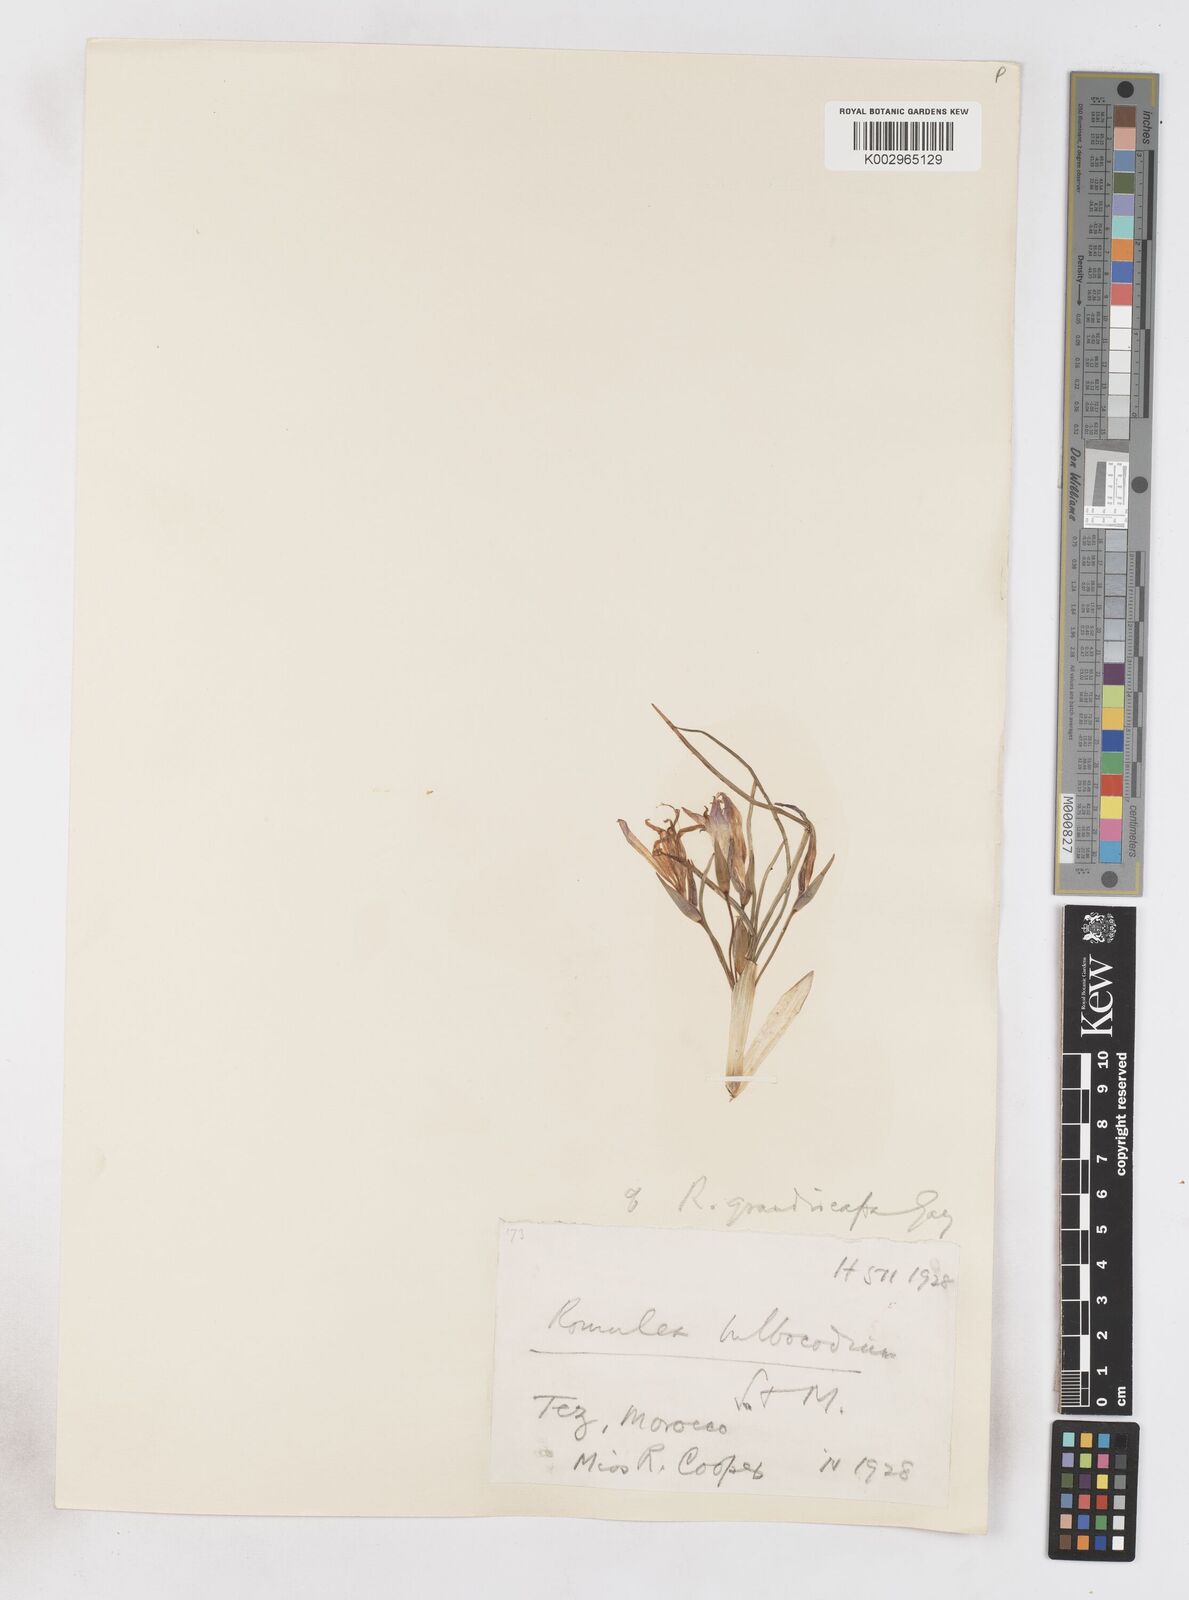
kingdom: Plantae
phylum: Tracheophyta
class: Liliopsida
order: Asparagales
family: Iridaceae
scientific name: Iridaceae
